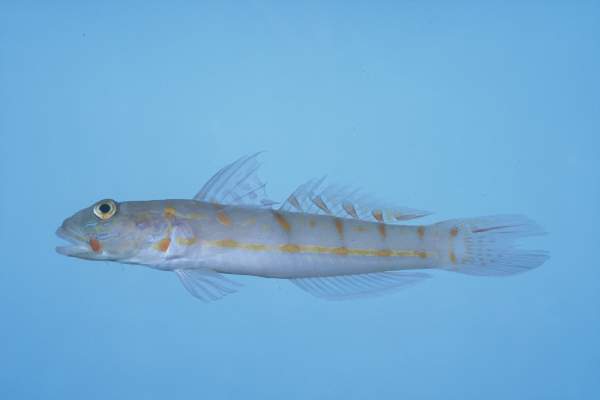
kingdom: Animalia
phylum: Chordata
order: Perciformes
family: Gobiidae
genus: Valenciennea
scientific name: Valenciennea puellaris
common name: Orange-dashed goby
